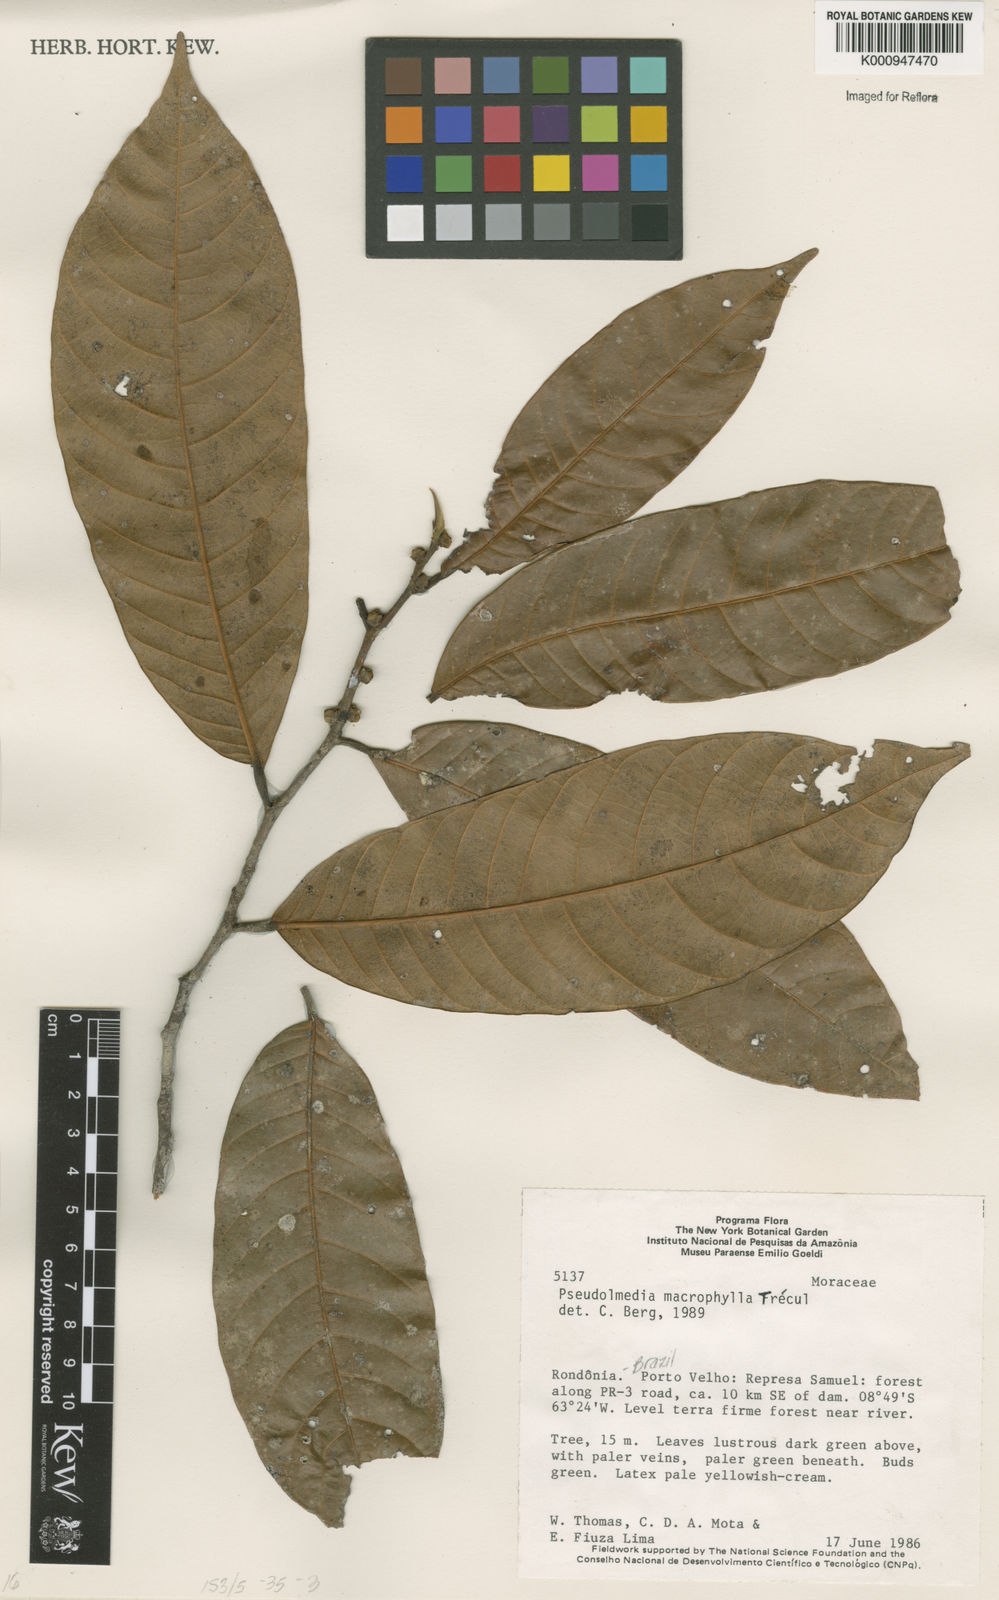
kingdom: Plantae
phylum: Tracheophyta
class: Magnoliopsida
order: Rosales
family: Moraceae
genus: Pseudolmedia
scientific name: Pseudolmedia
